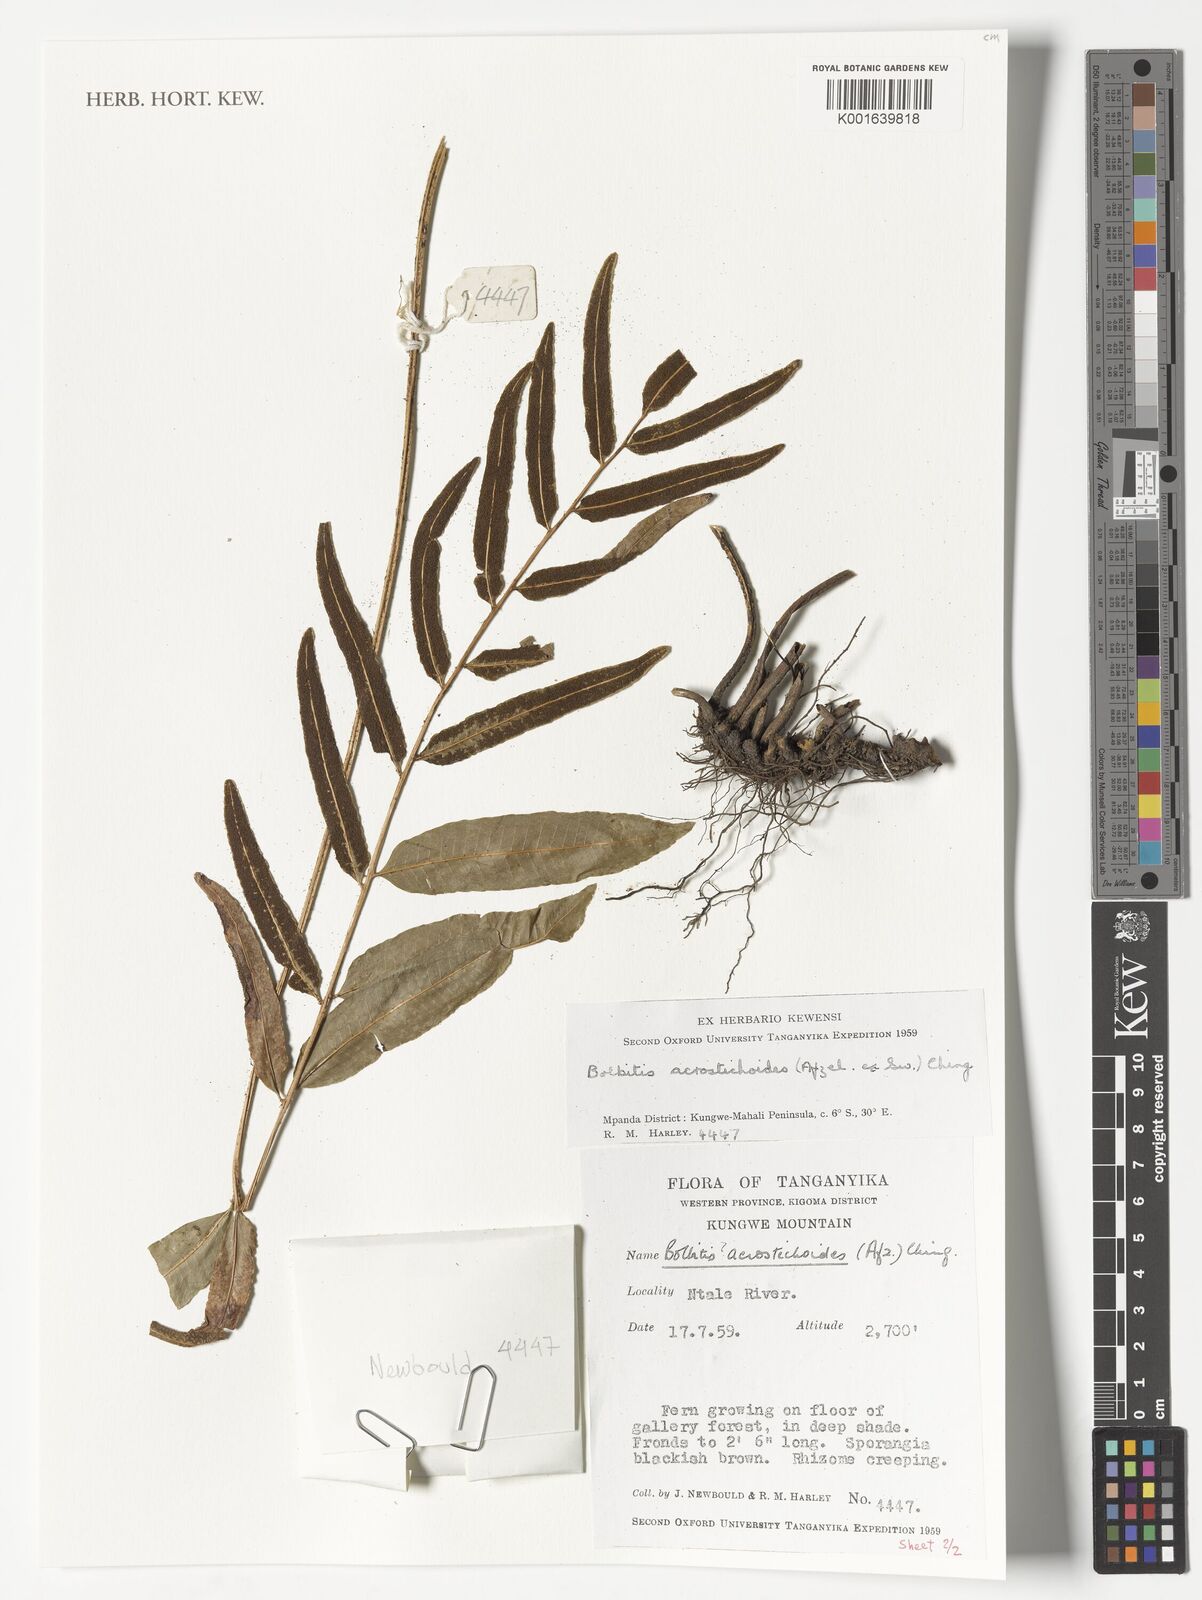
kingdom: Plantae
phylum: Tracheophyta
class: Polypodiopsida
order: Polypodiales
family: Dryopteridaceae
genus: Bolbitis
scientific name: Bolbitis acrostichoides
